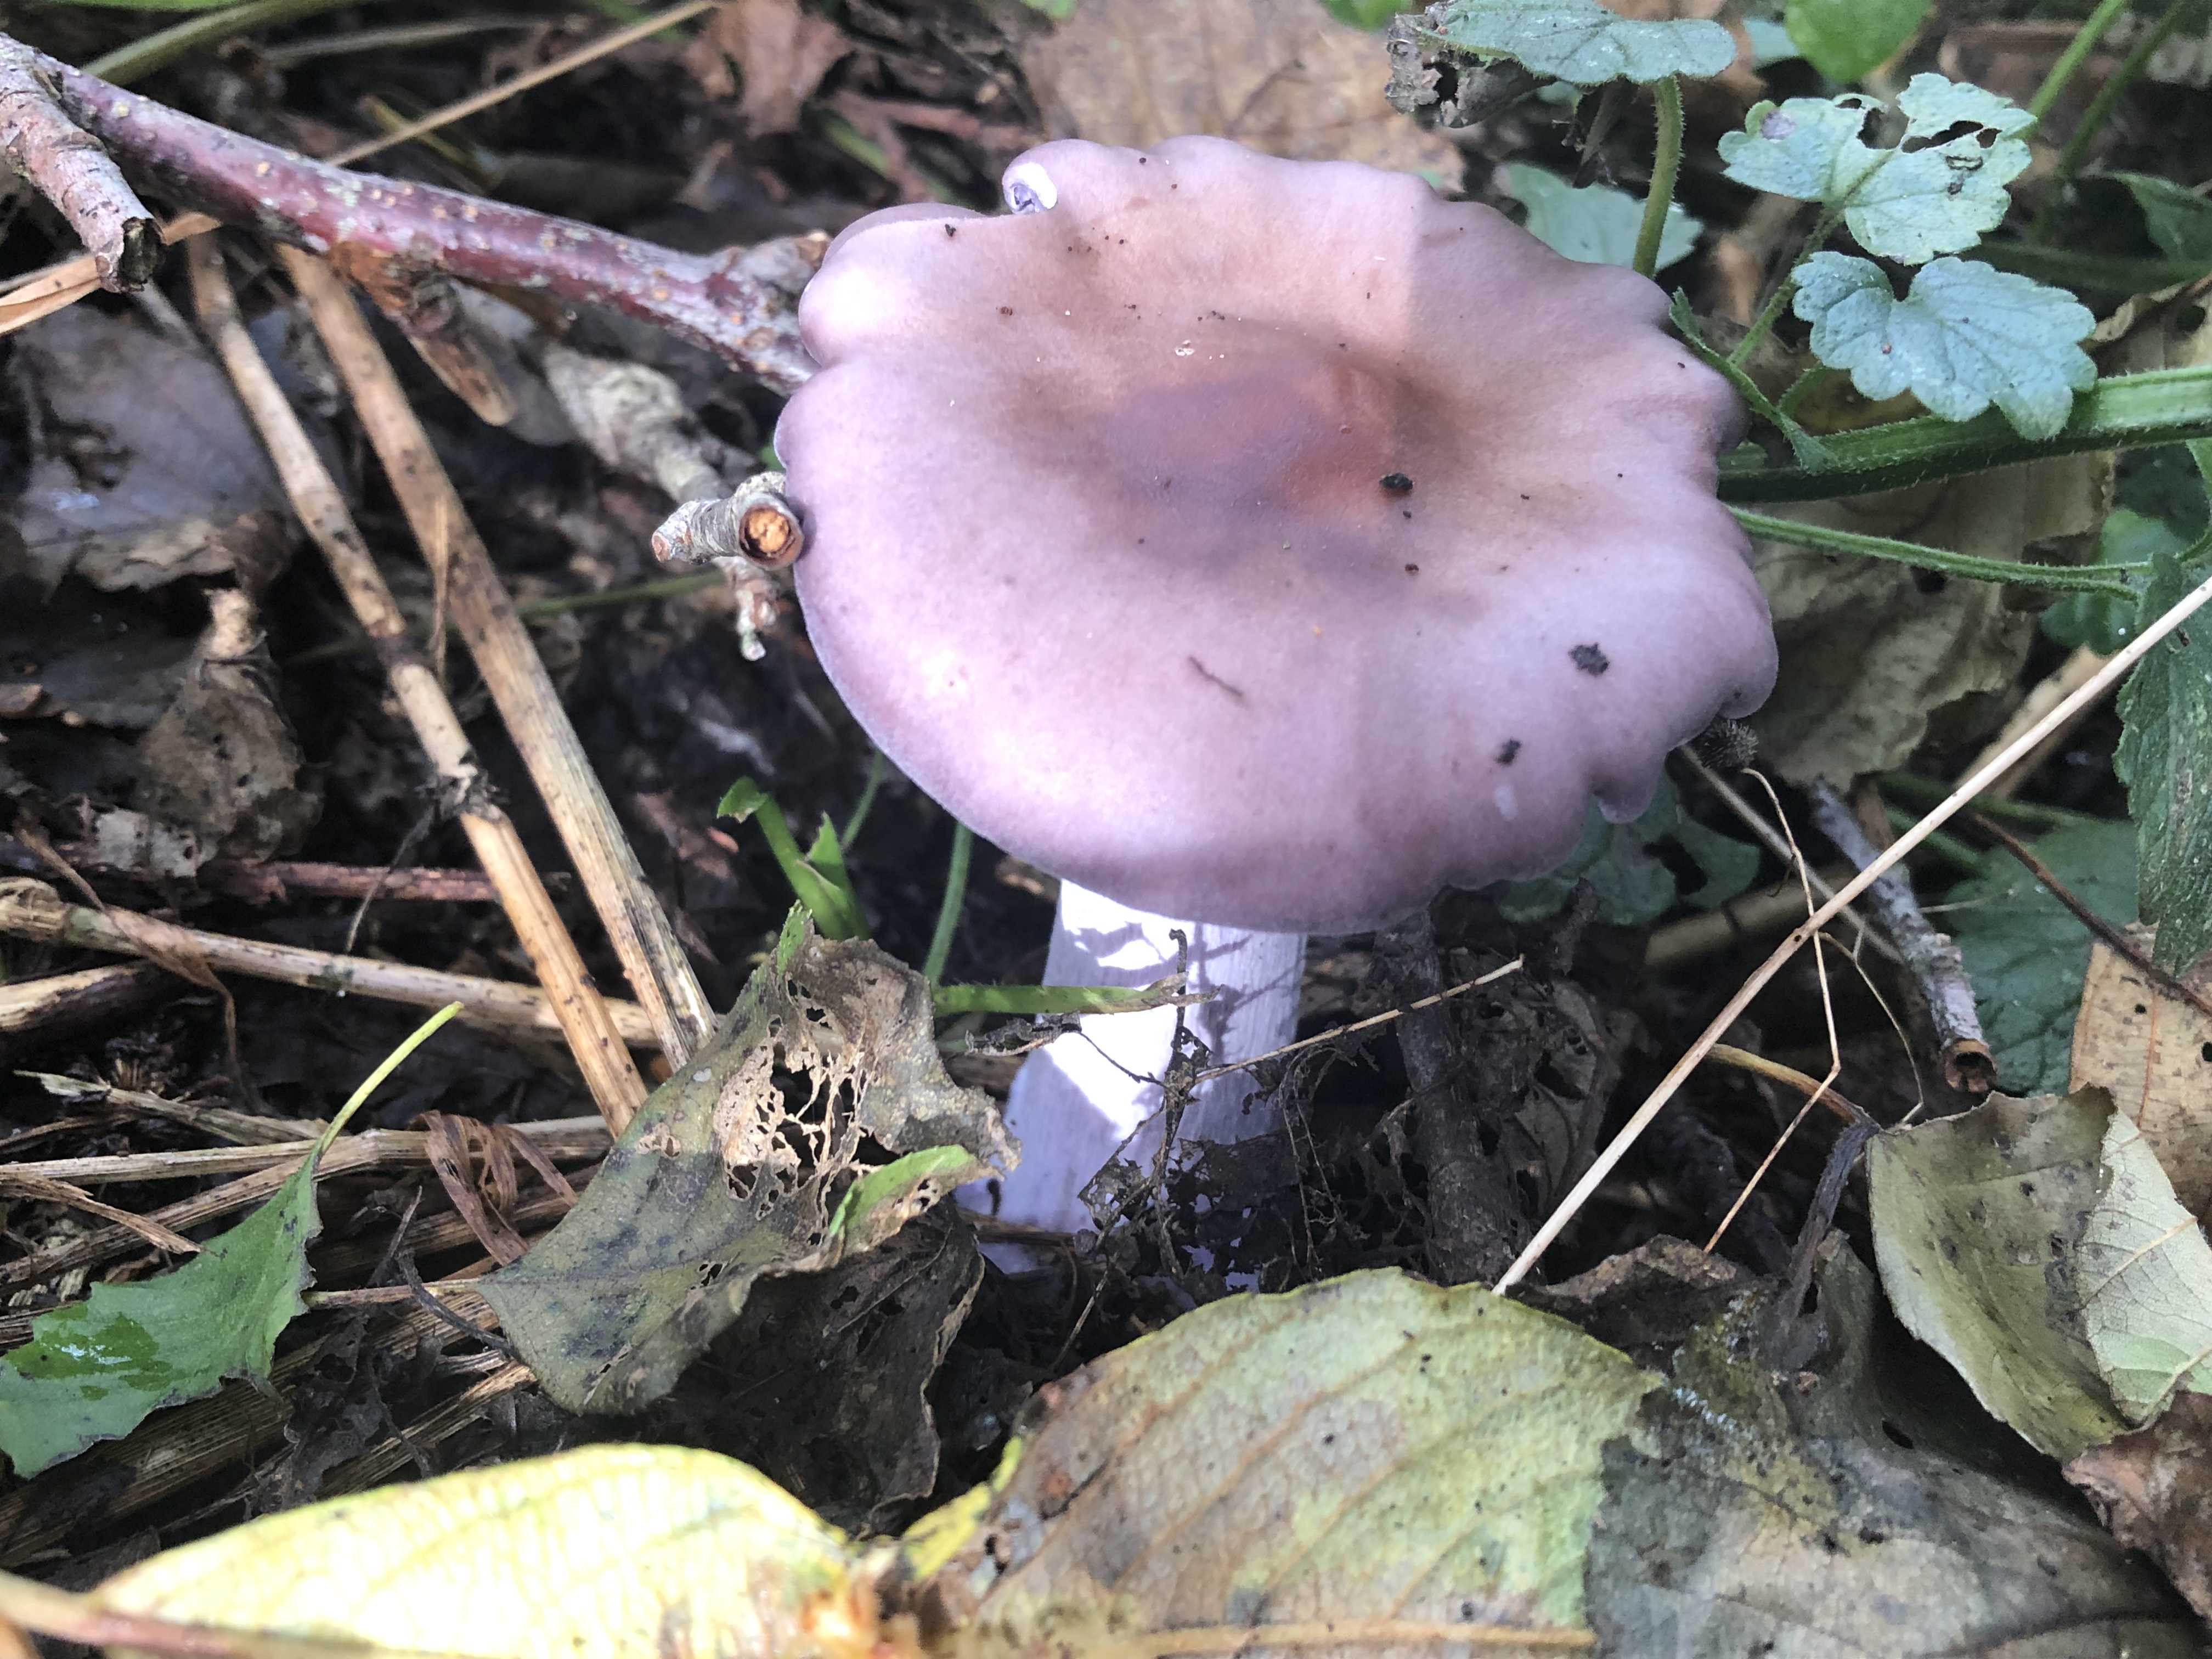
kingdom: Fungi
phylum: Basidiomycota
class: Agaricomycetes
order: Agaricales
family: Tricholomataceae
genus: Lepista
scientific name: Lepista nuda
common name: violet hekseringshat
